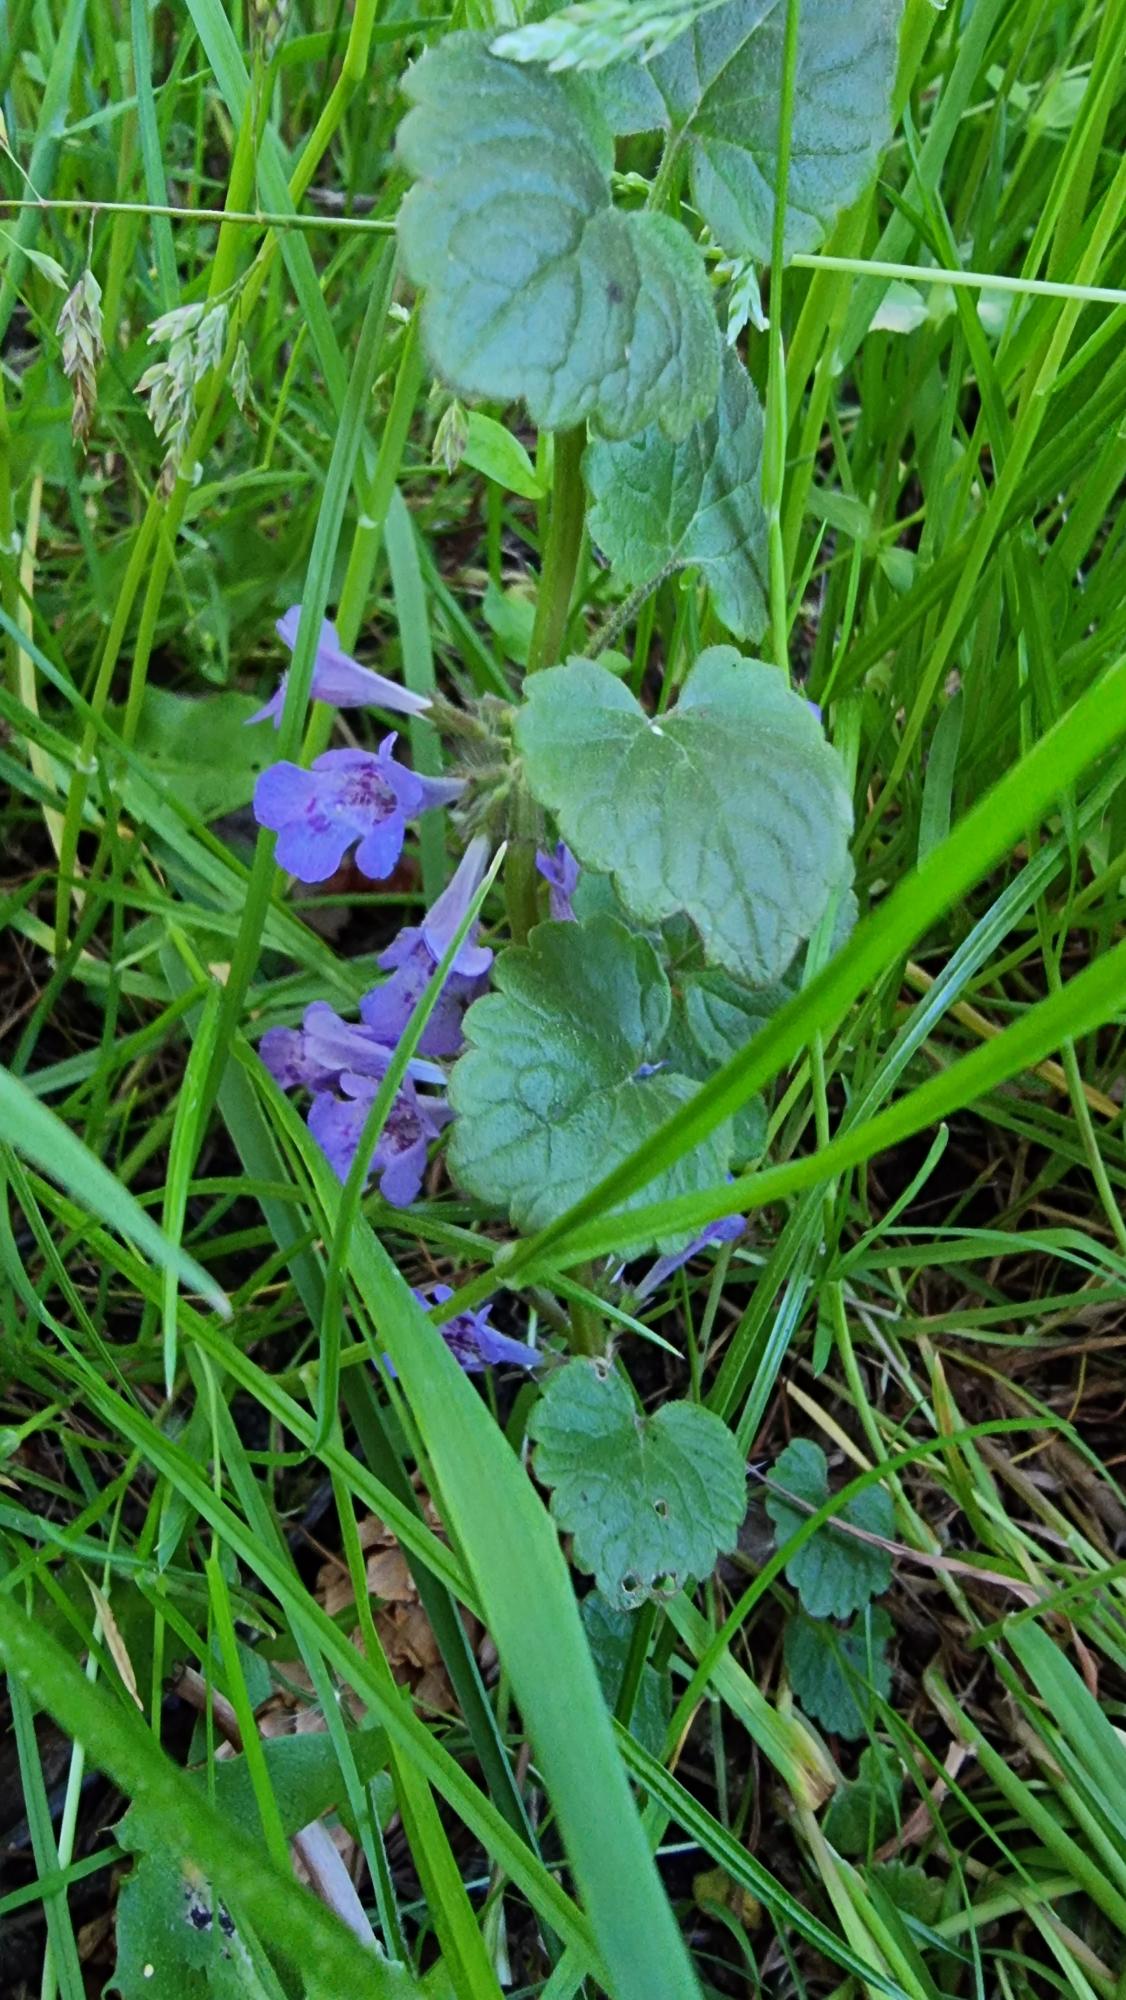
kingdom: Plantae
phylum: Tracheophyta
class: Magnoliopsida
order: Lamiales
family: Lamiaceae
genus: Glechoma
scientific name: Glechoma hederacea
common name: Korsknap
